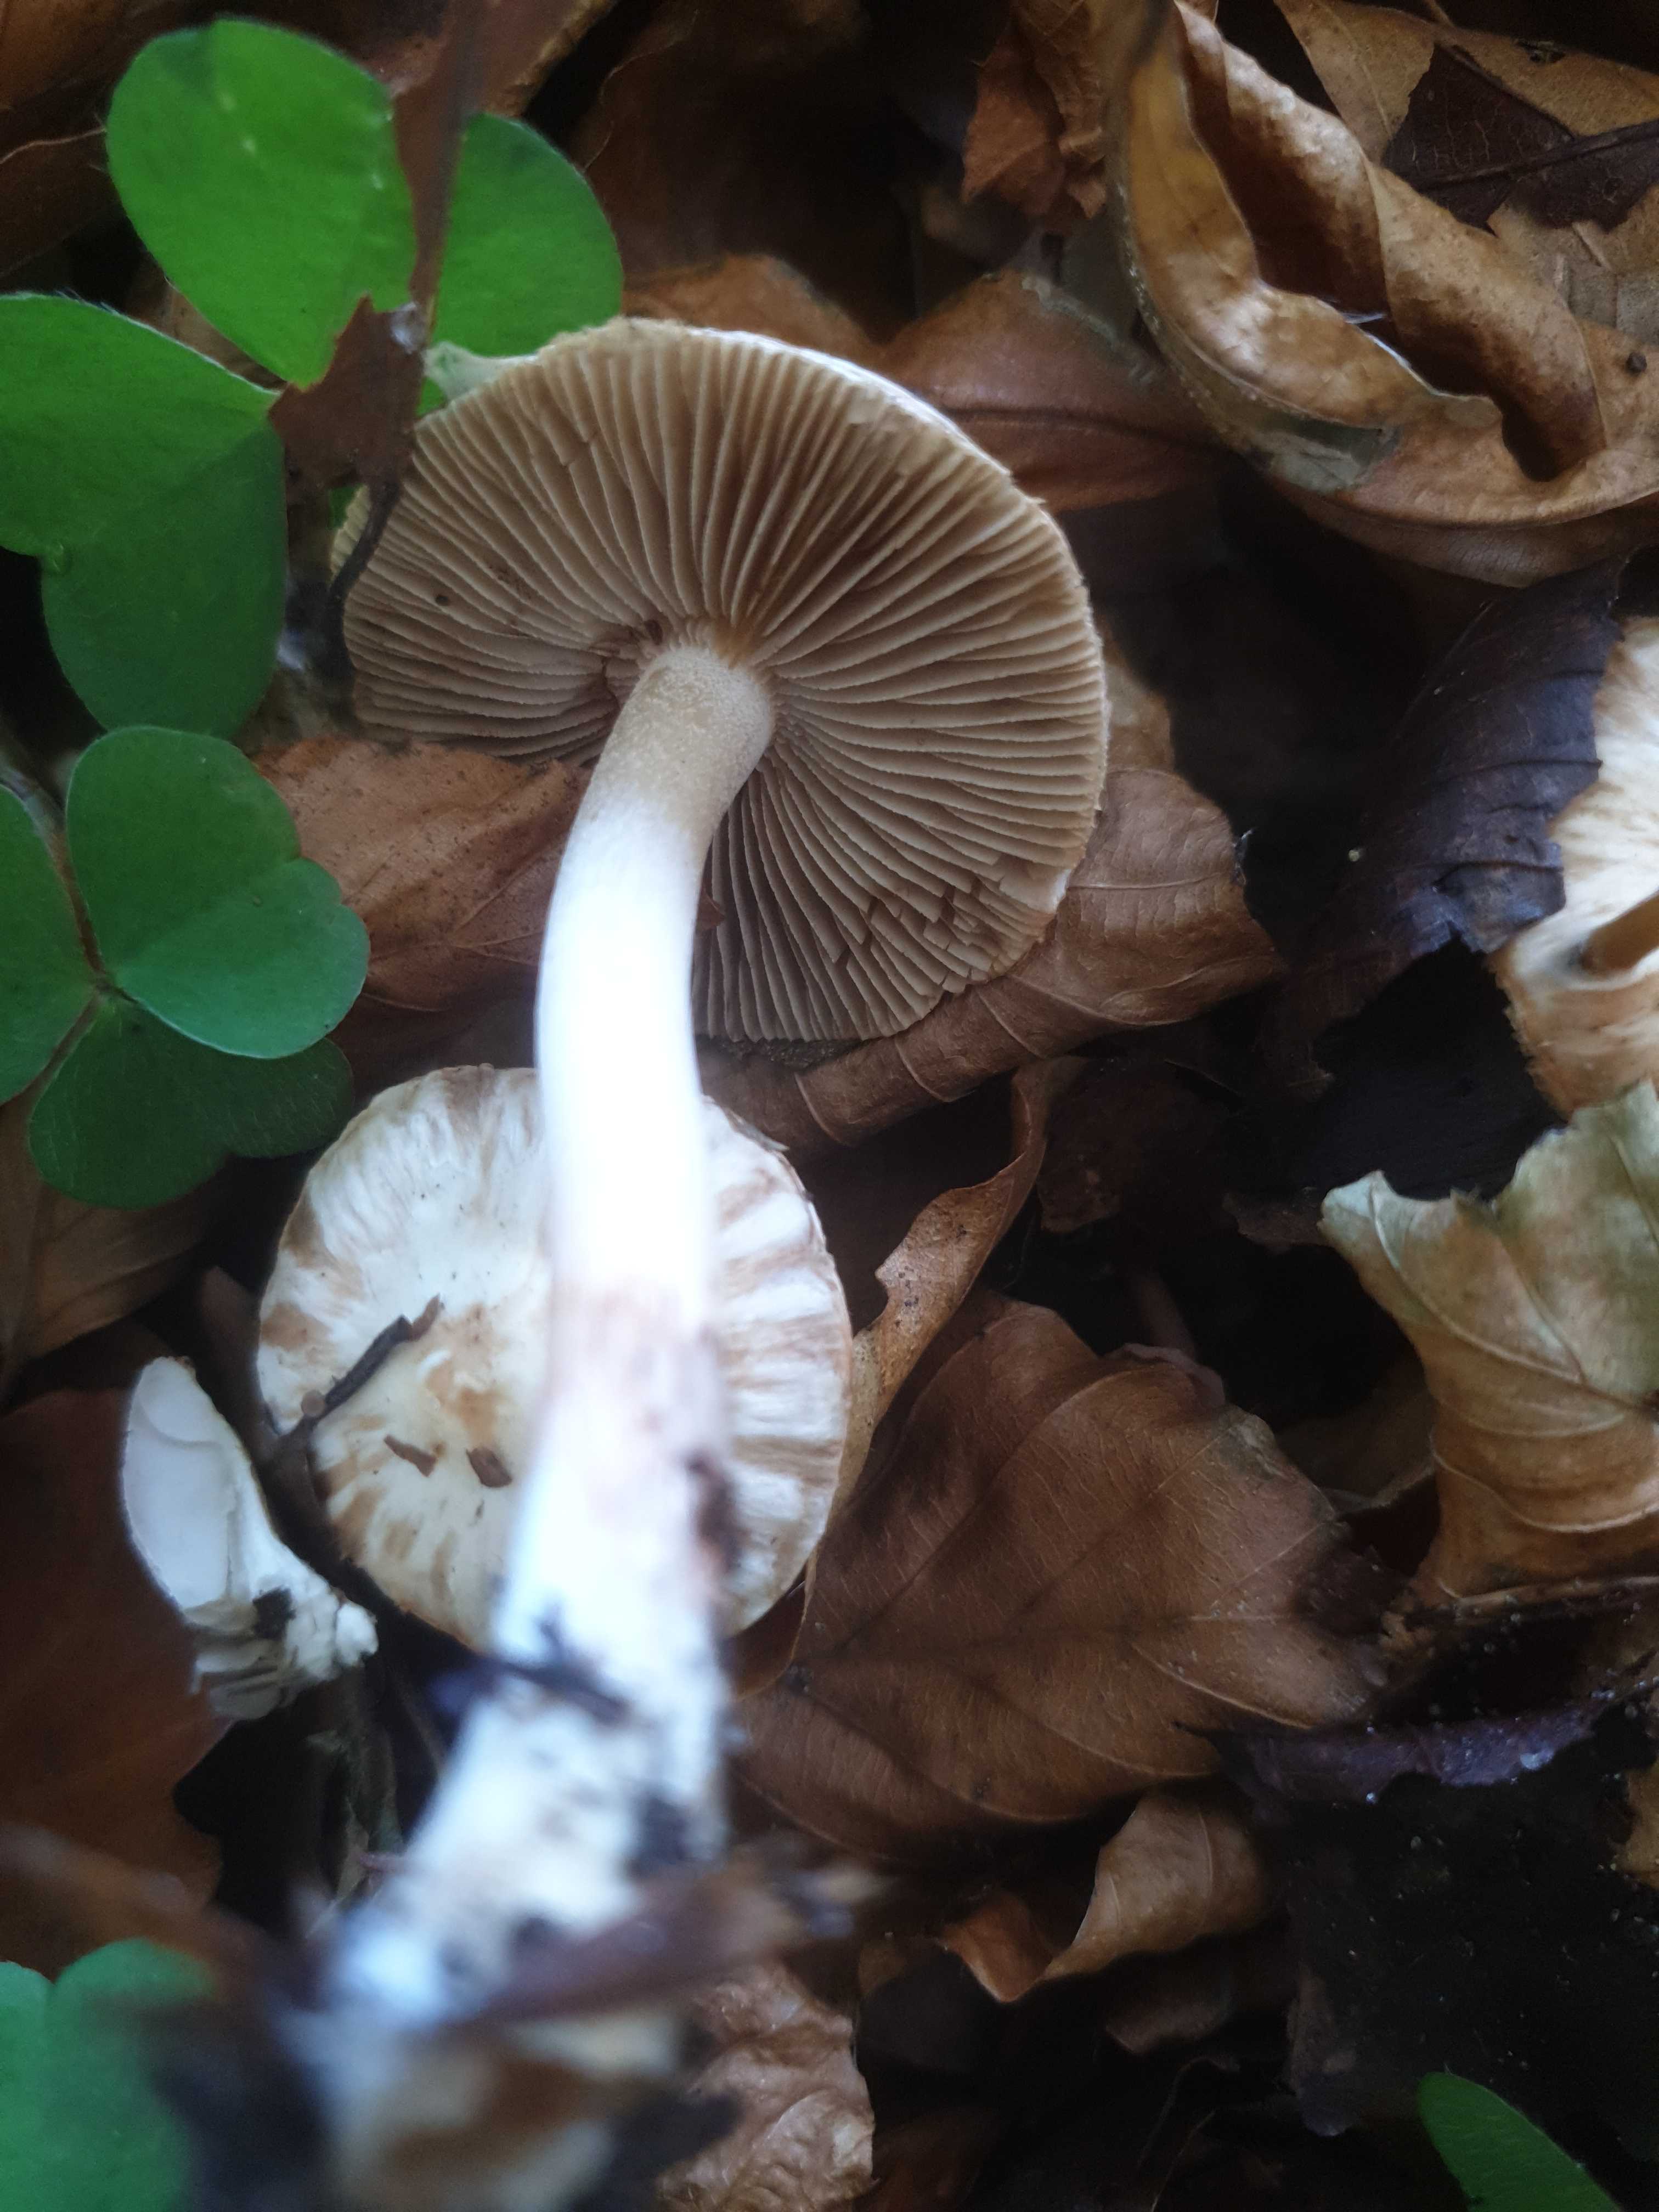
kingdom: Fungi
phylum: Basidiomycota
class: Agaricomycetes
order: Agaricales
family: Inocybaceae
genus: Inocybe
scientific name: Inocybe
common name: trævlhat
